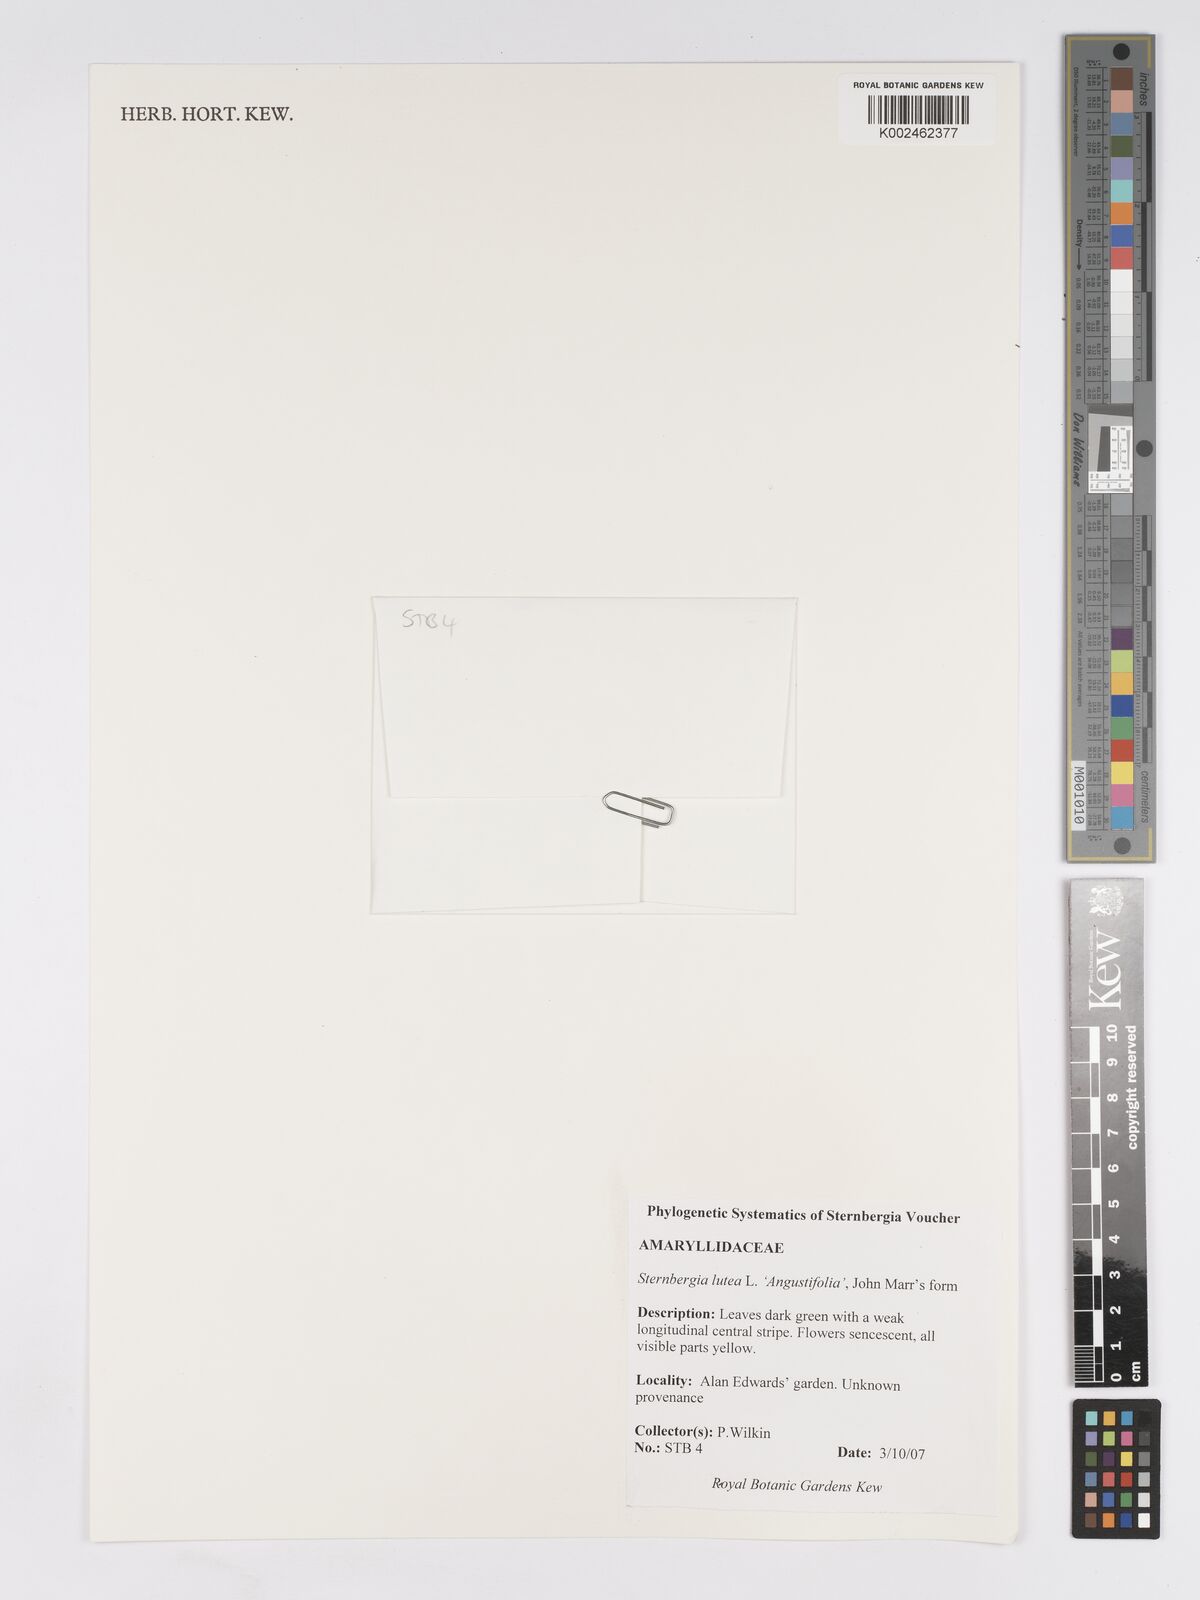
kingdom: Plantae
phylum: Tracheophyta
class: Liliopsida
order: Asparagales
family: Amaryllidaceae
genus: Sternbergia
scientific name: Sternbergia lutea
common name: Winter daffodil
